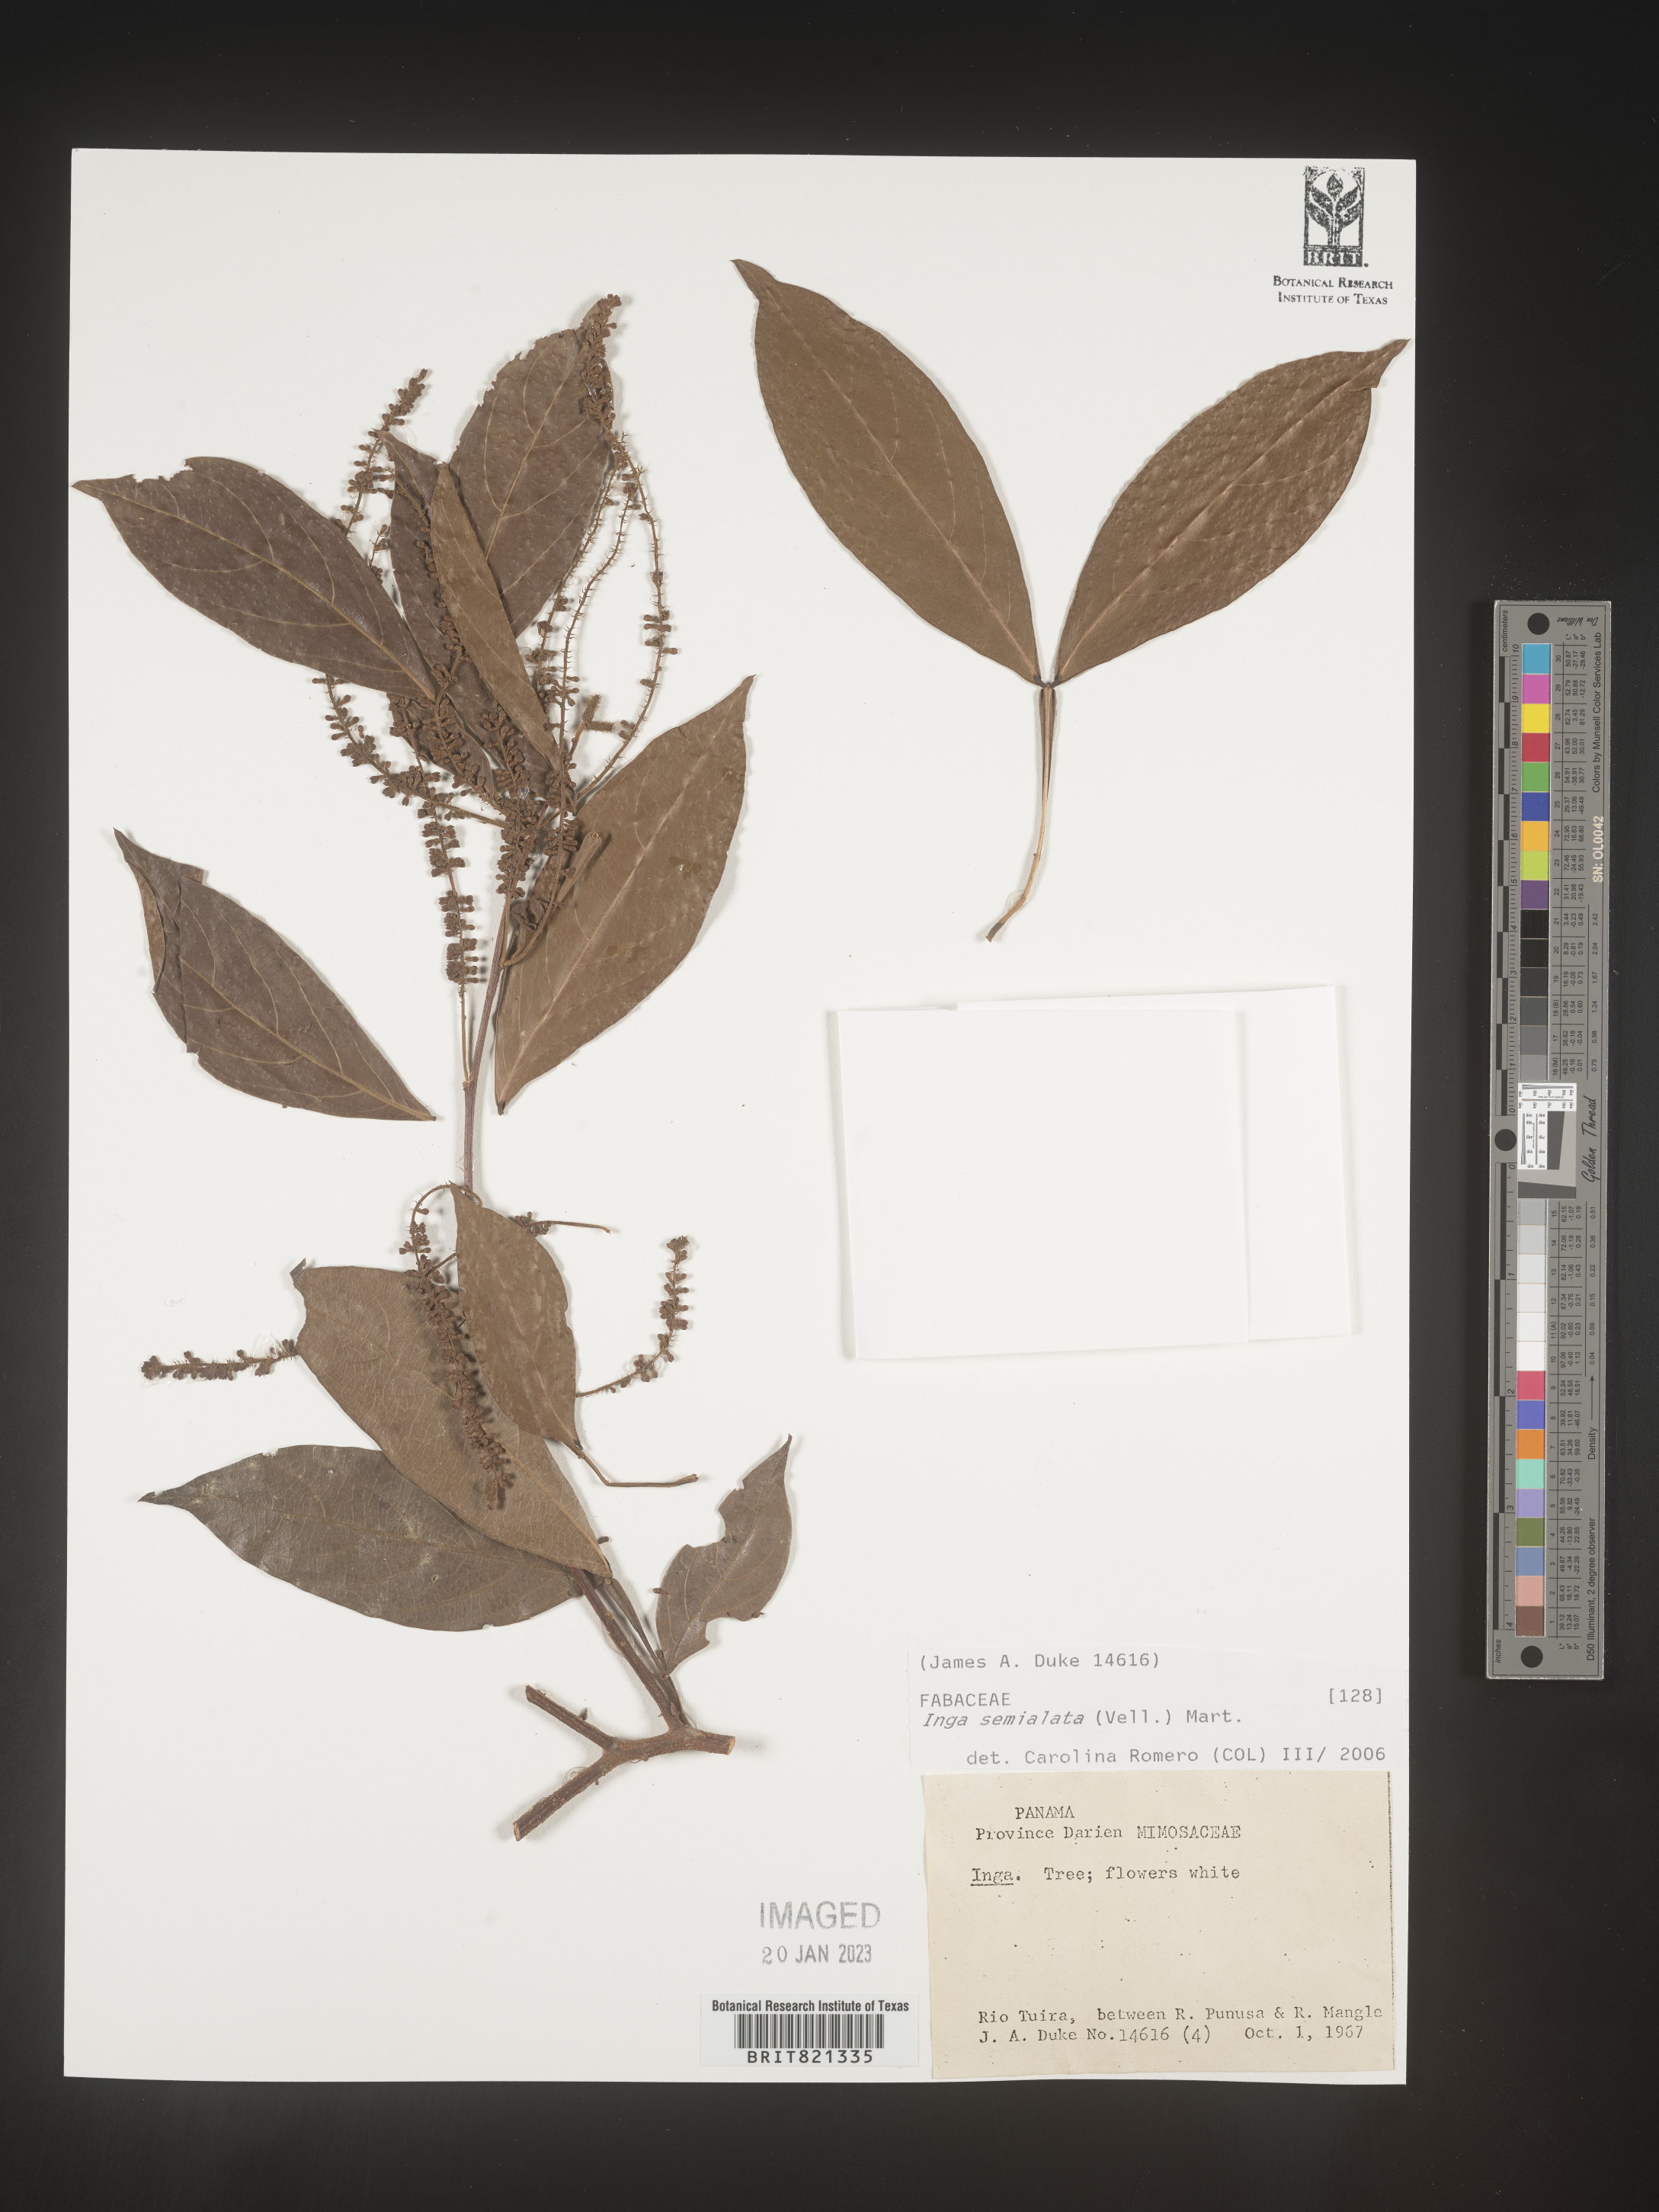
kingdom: Plantae
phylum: Tracheophyta
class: Magnoliopsida
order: Fabales
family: Fabaceae
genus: Inga
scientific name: Inga
